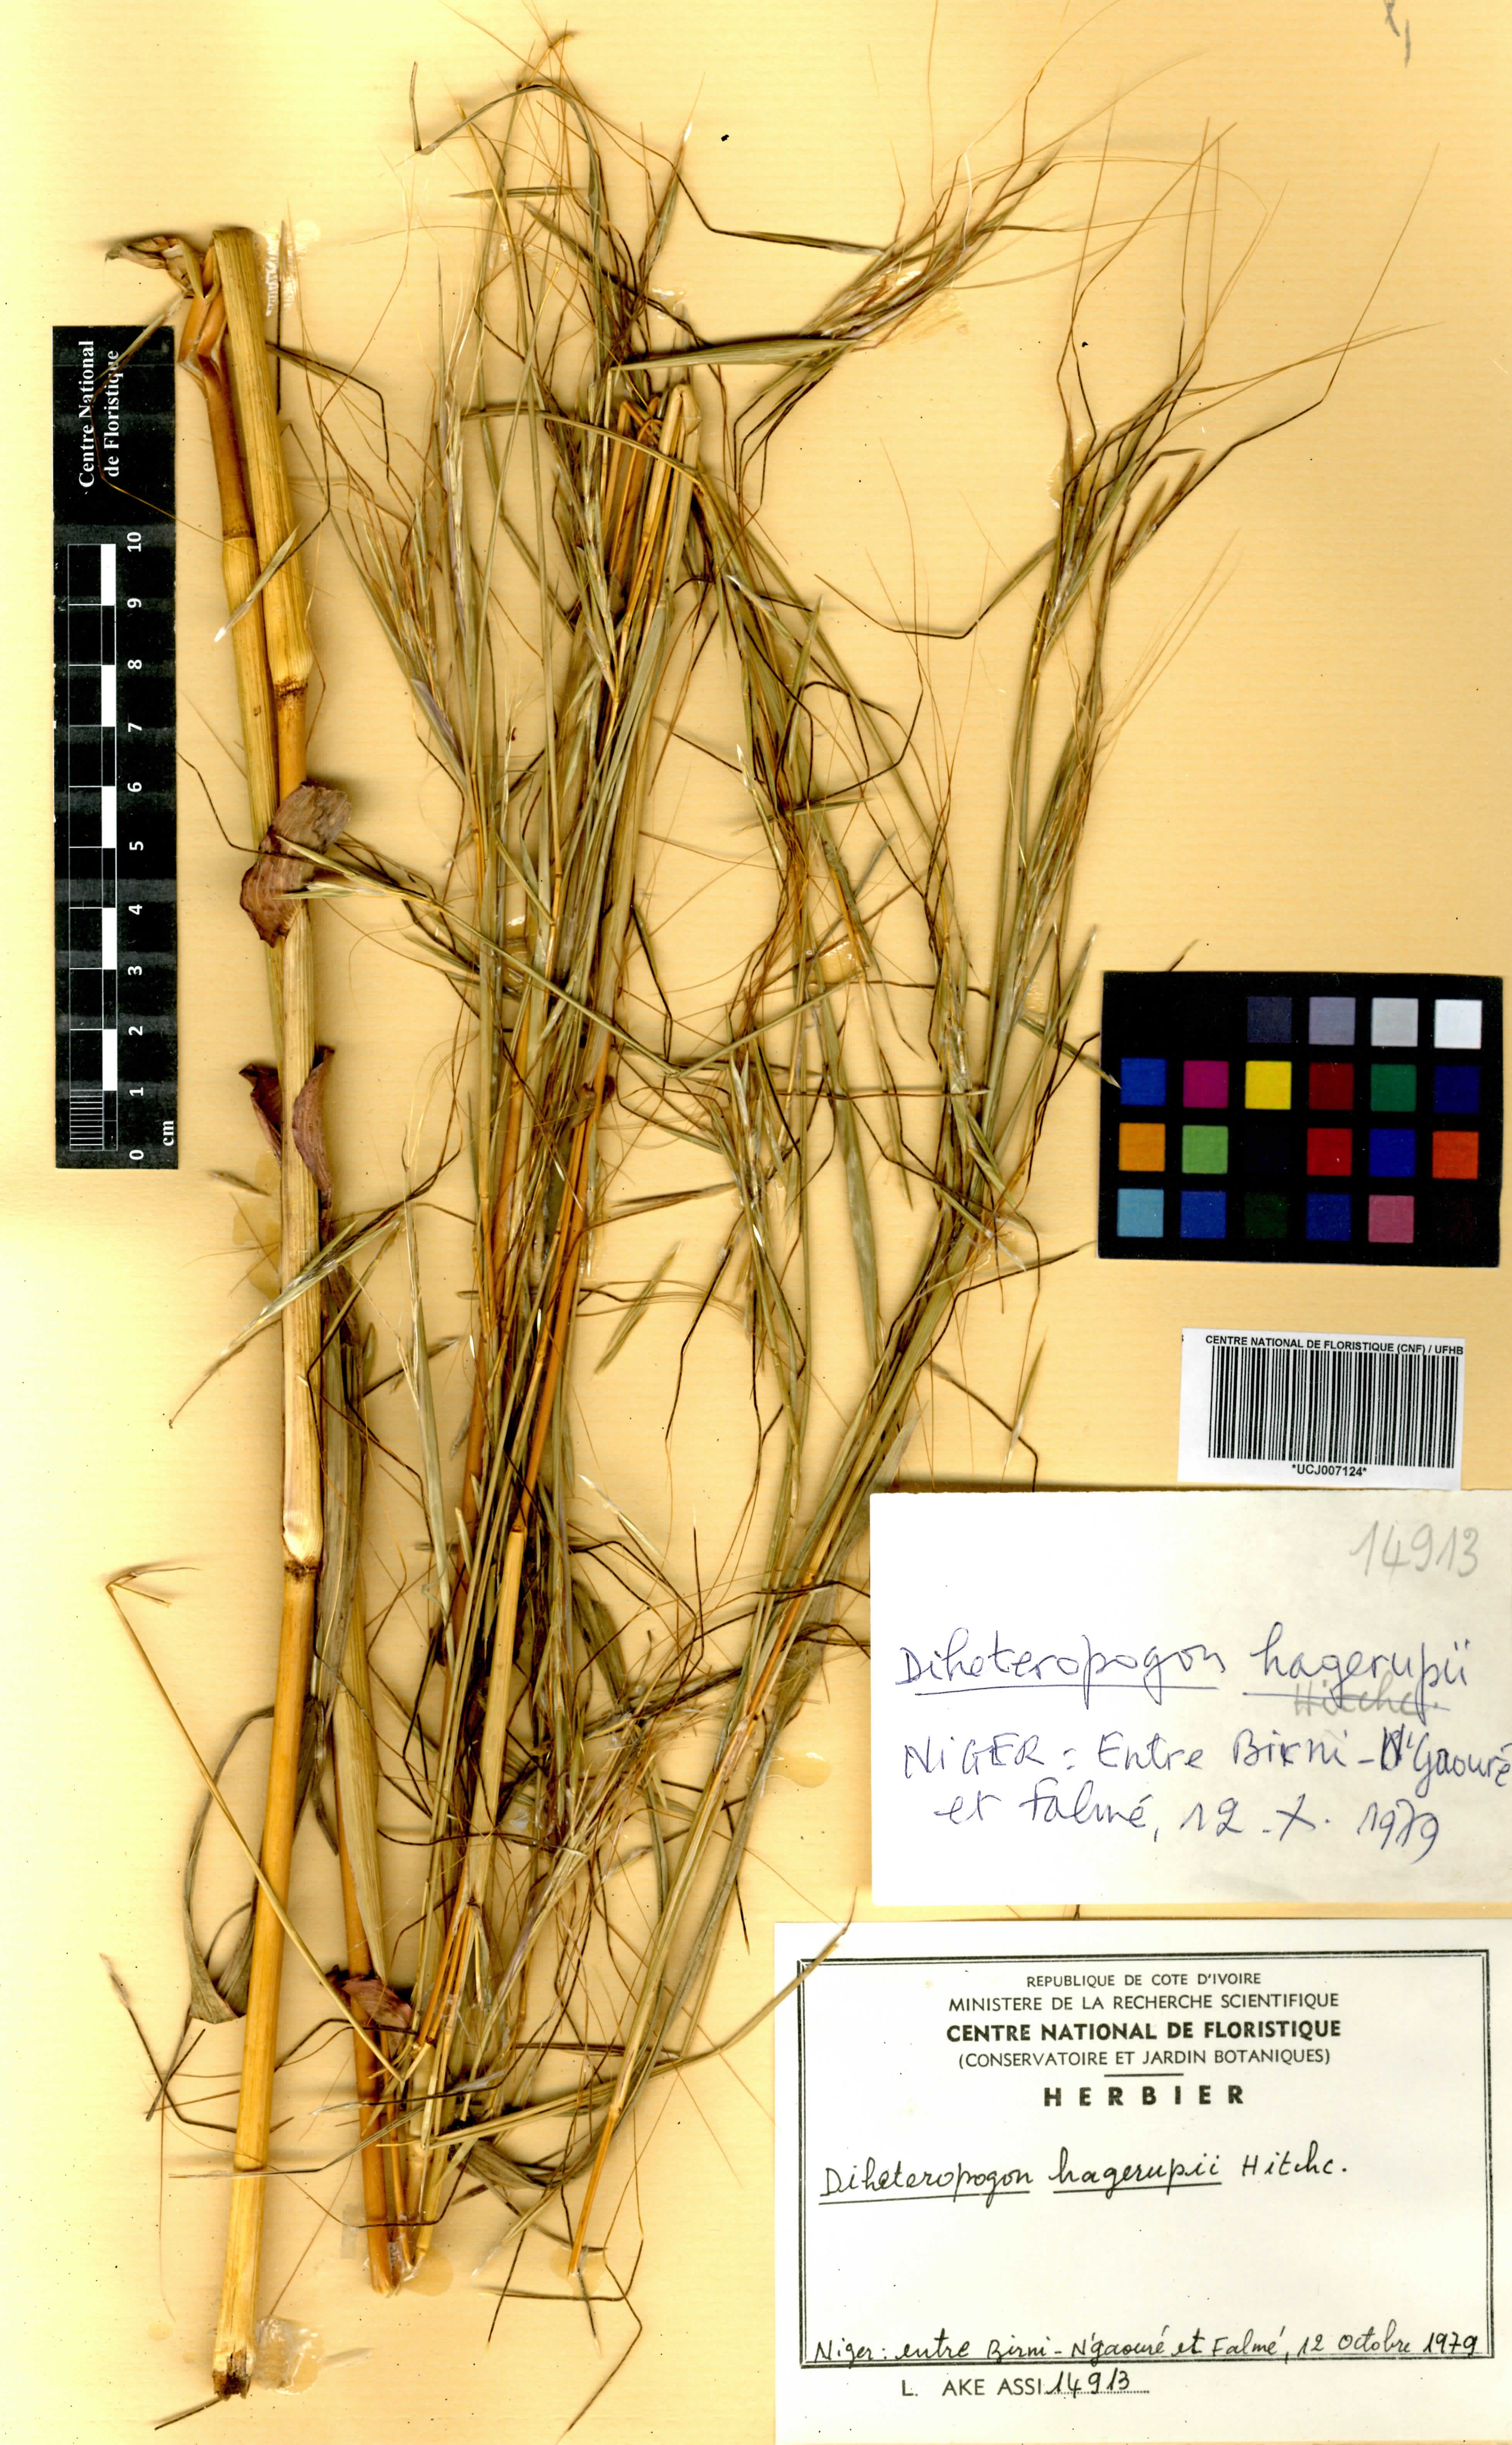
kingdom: Plantae
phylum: Tracheophyta
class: Liliopsida
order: Poales
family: Poaceae
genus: Diheteropogon
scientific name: Diheteropogon hagerupii
